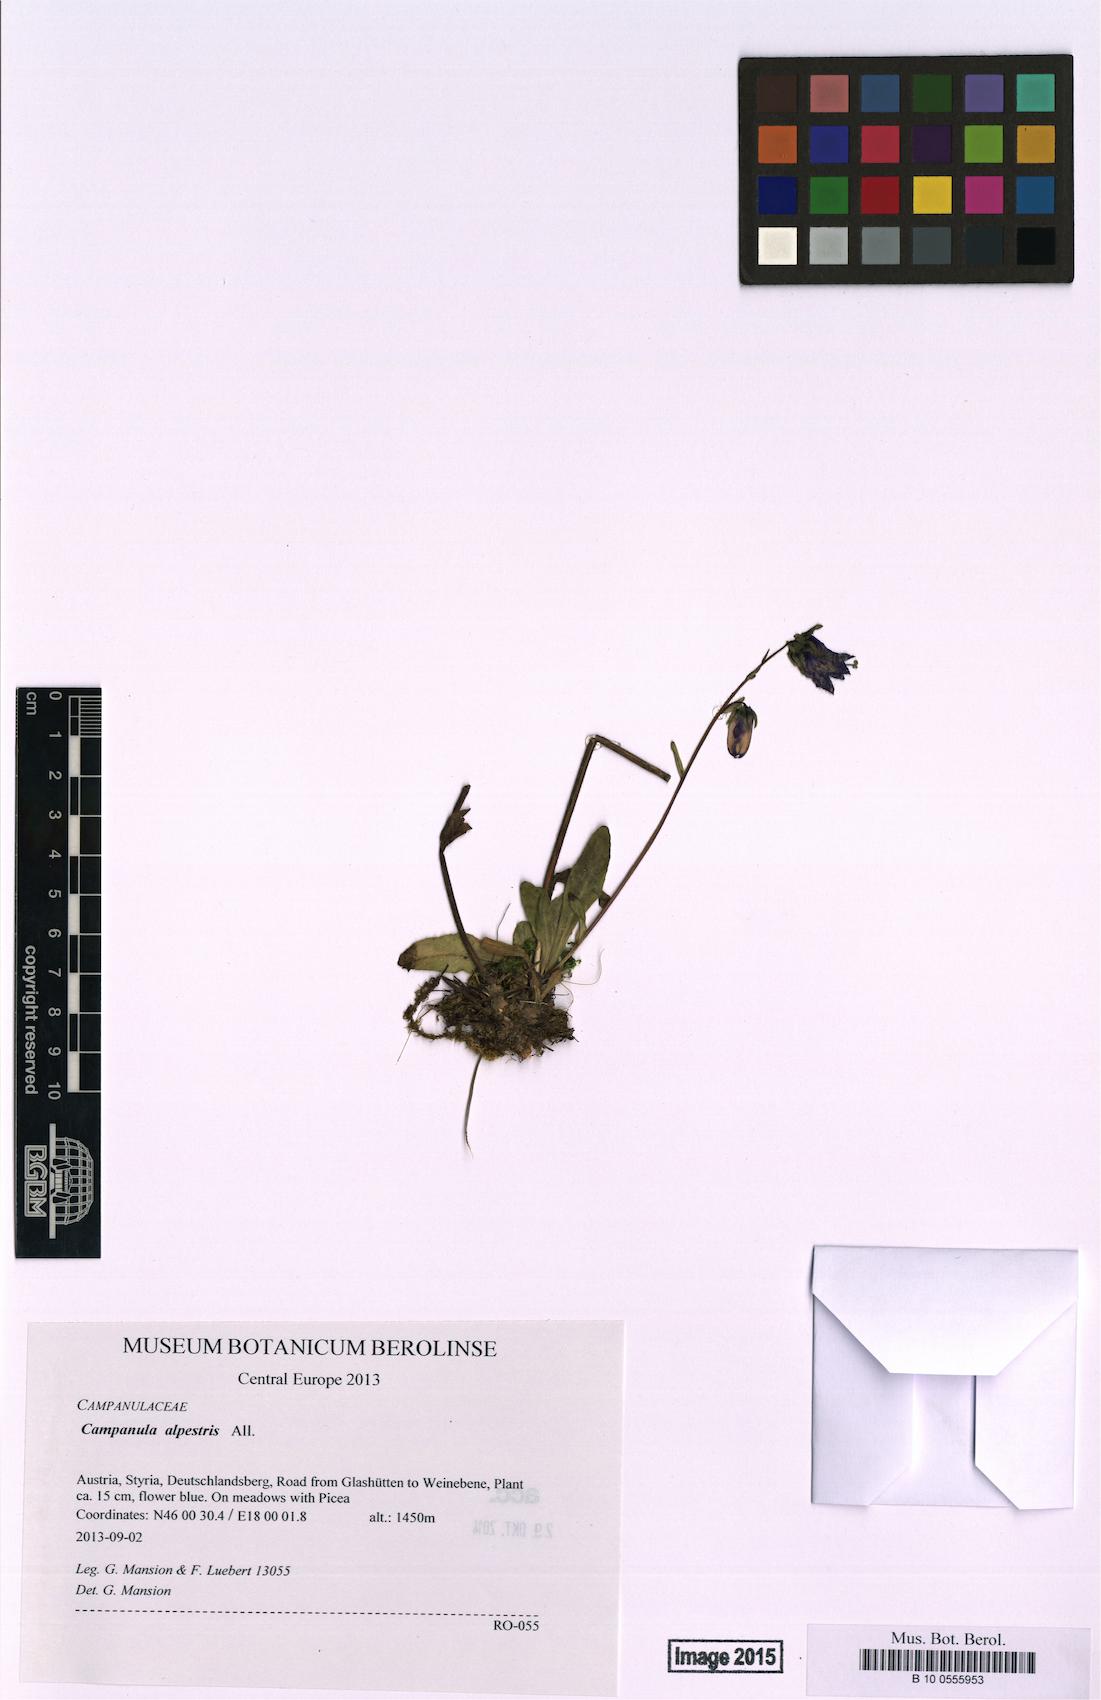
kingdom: Plantae
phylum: Tracheophyta
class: Magnoliopsida
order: Asterales
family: Campanulaceae
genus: Campanula
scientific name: Campanula alpestris
